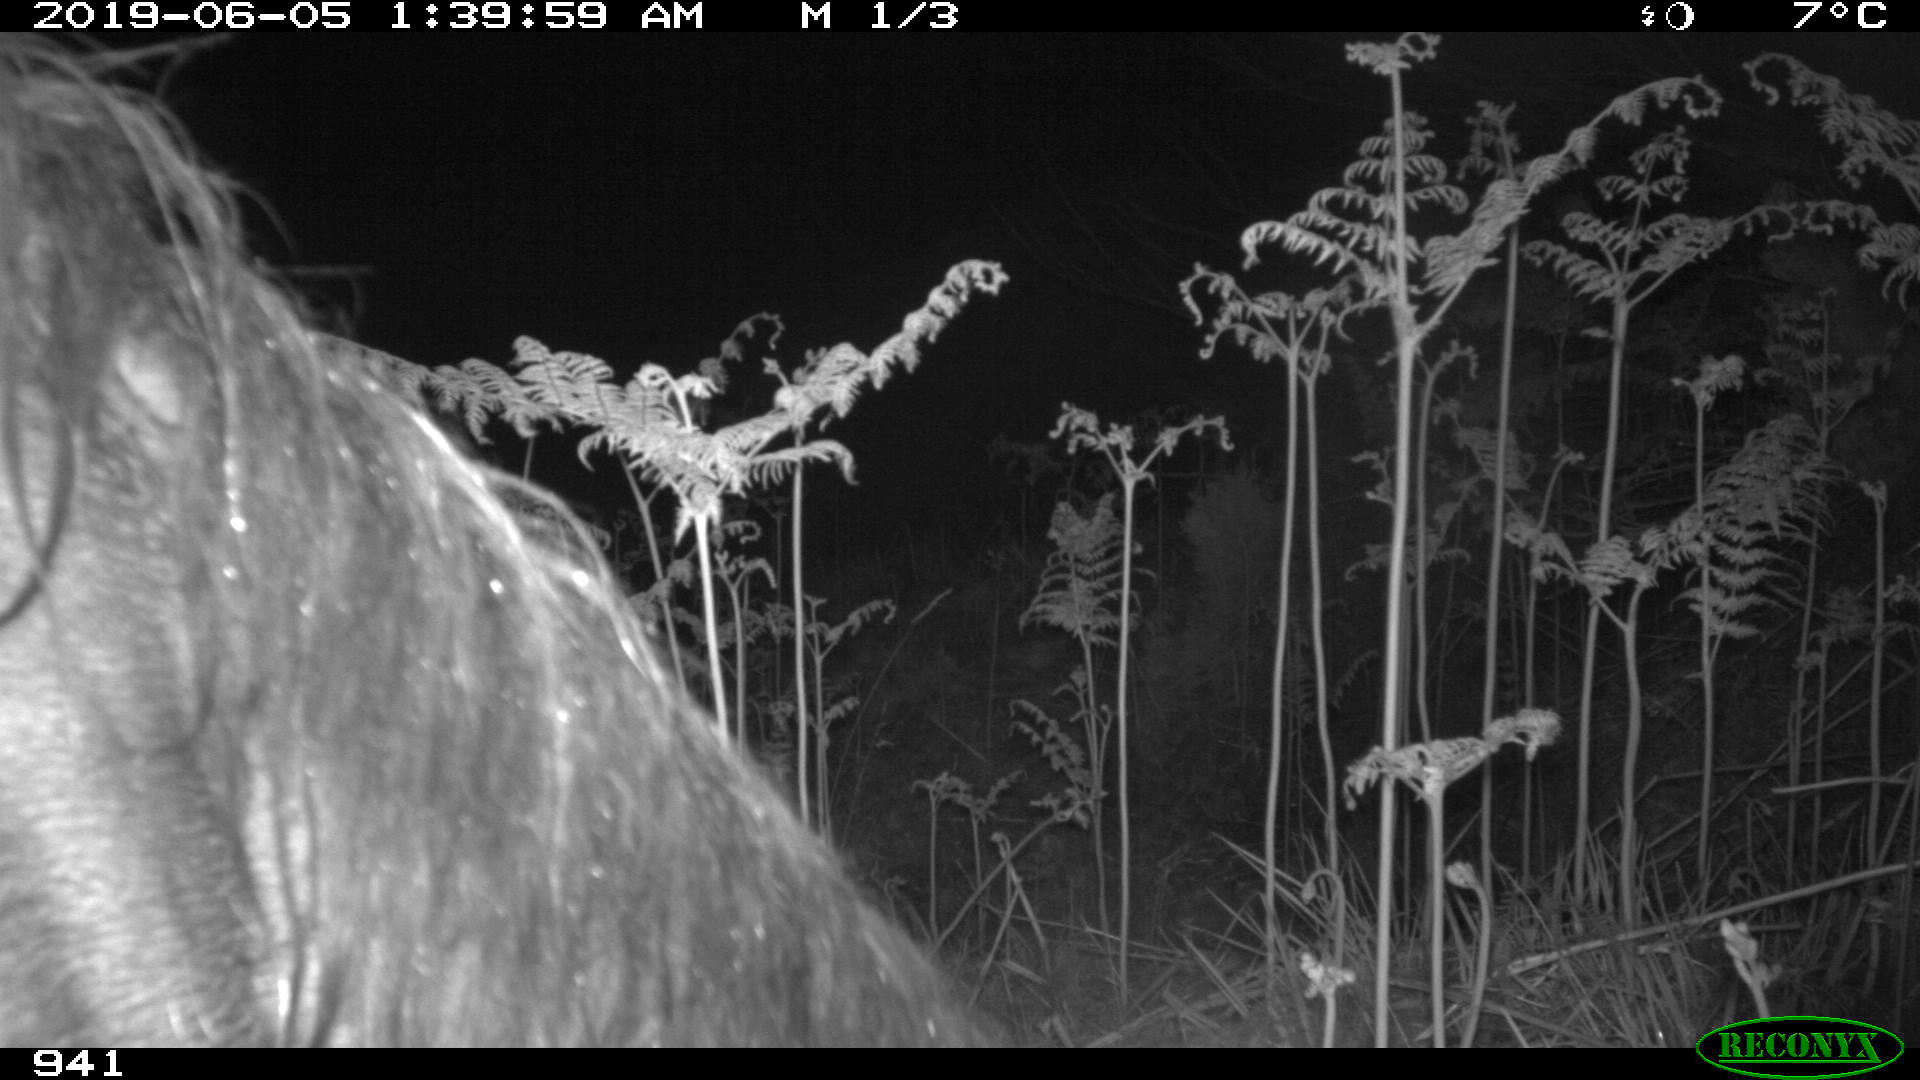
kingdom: Animalia
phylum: Chordata
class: Mammalia
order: Perissodactyla
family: Equidae
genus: Equus
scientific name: Equus caballus
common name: Horse
